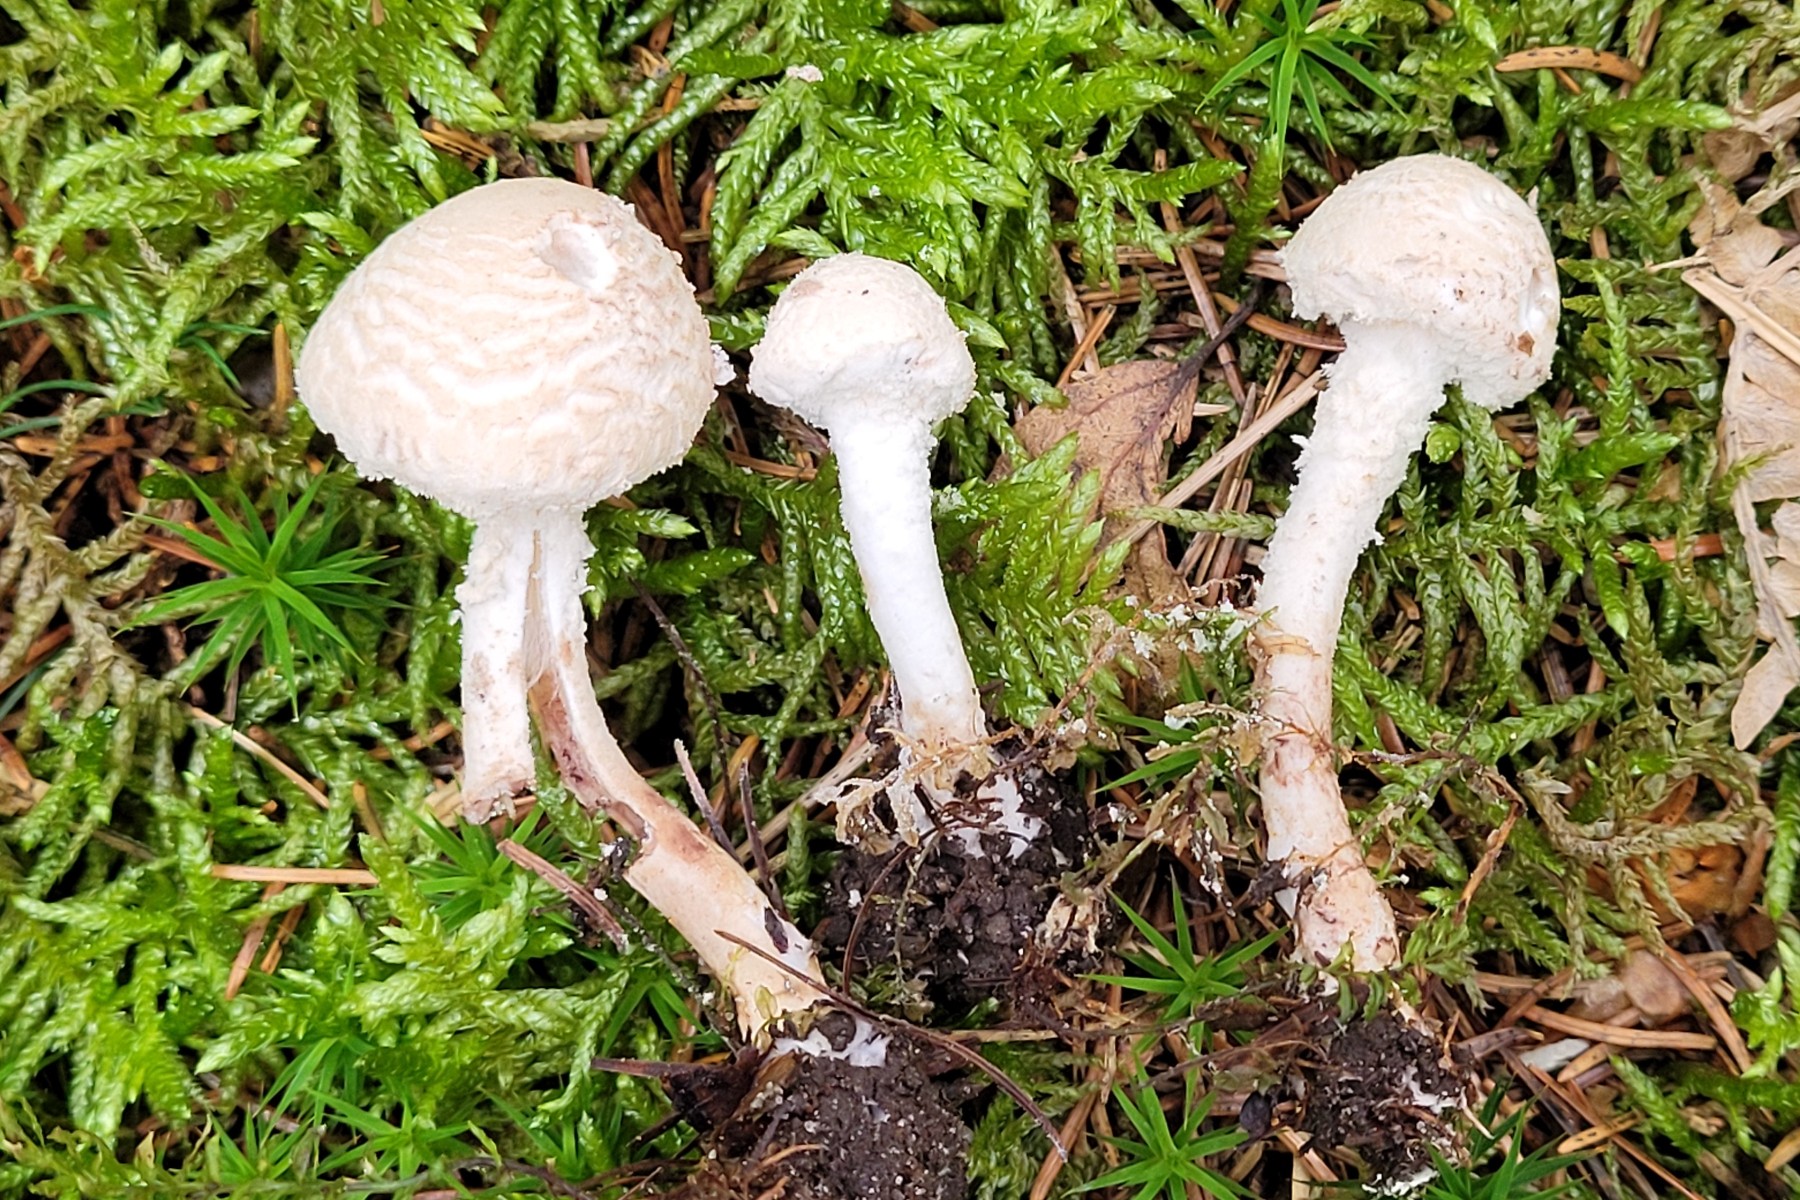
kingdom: Fungi
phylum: Basidiomycota
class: Agaricomycetes
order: Agaricales
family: Agaricaceae
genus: Cystolepiota
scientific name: Cystolepiota adulterina
